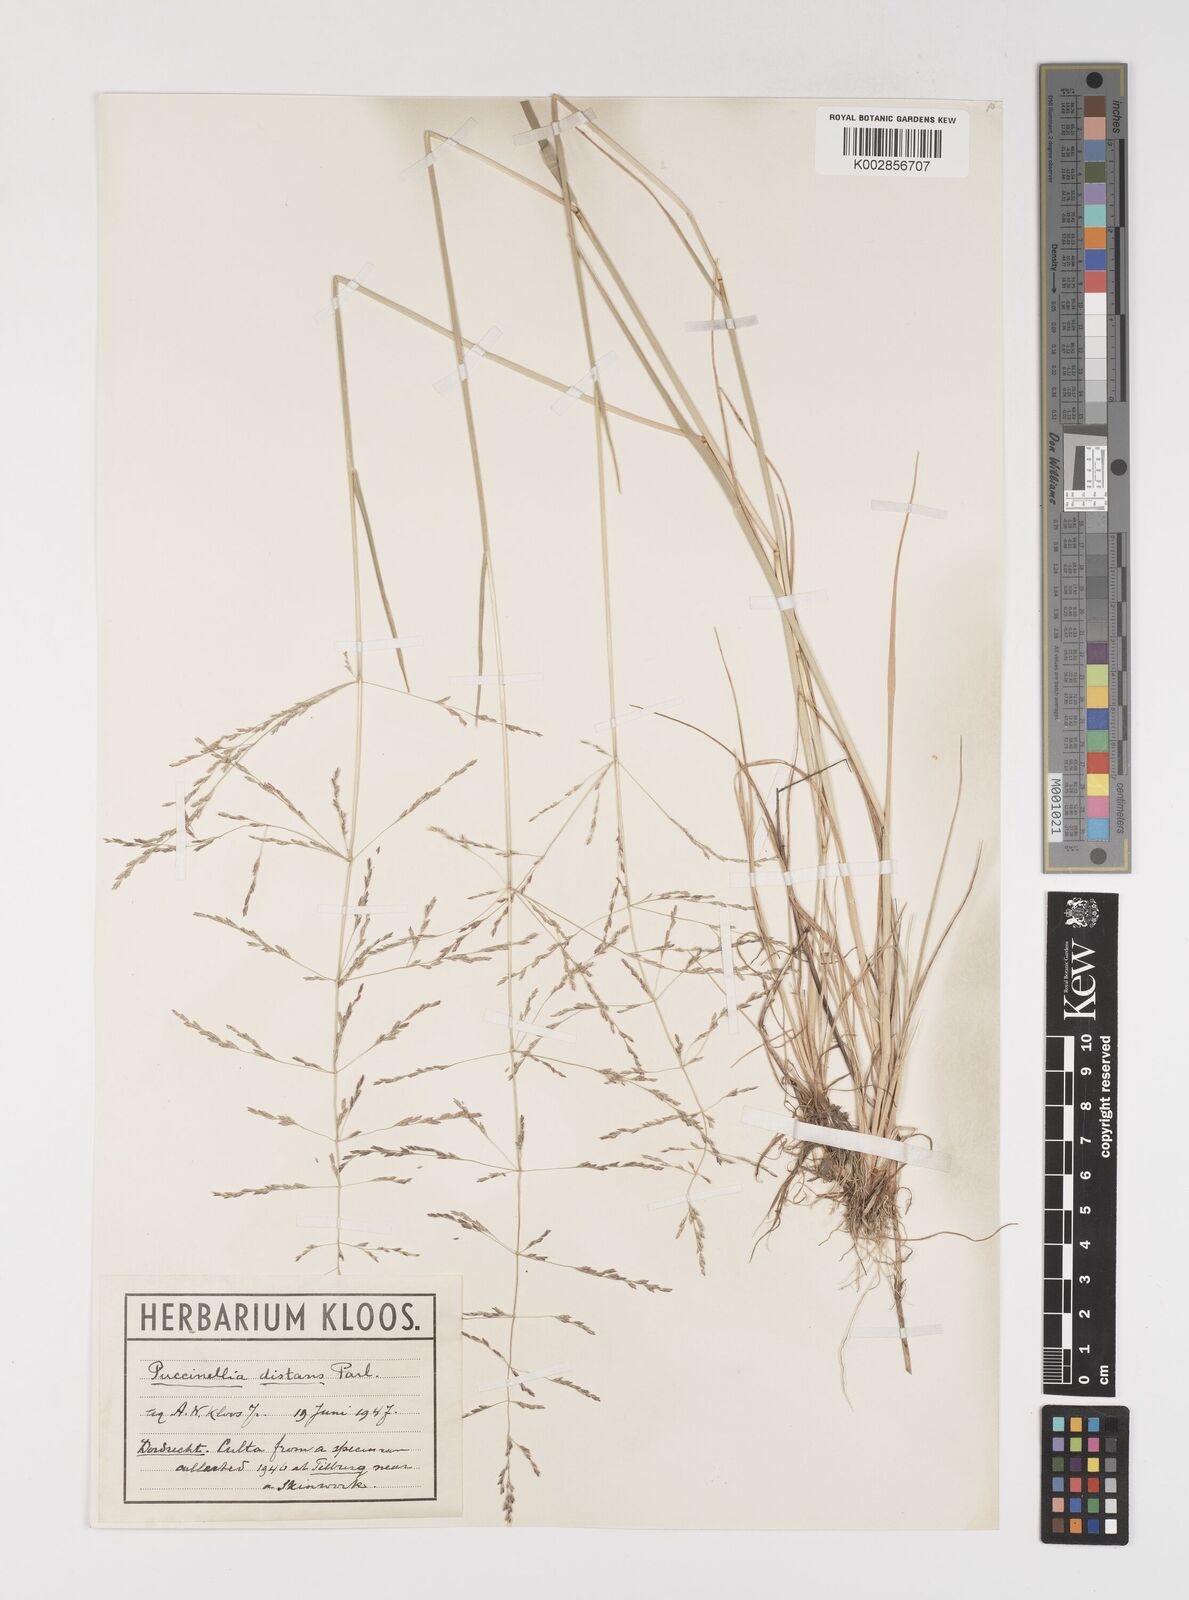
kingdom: Plantae
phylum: Tracheophyta
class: Liliopsida
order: Poales
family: Poaceae
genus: Puccinellia
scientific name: Puccinellia distans
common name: Weeping alkaligrass
